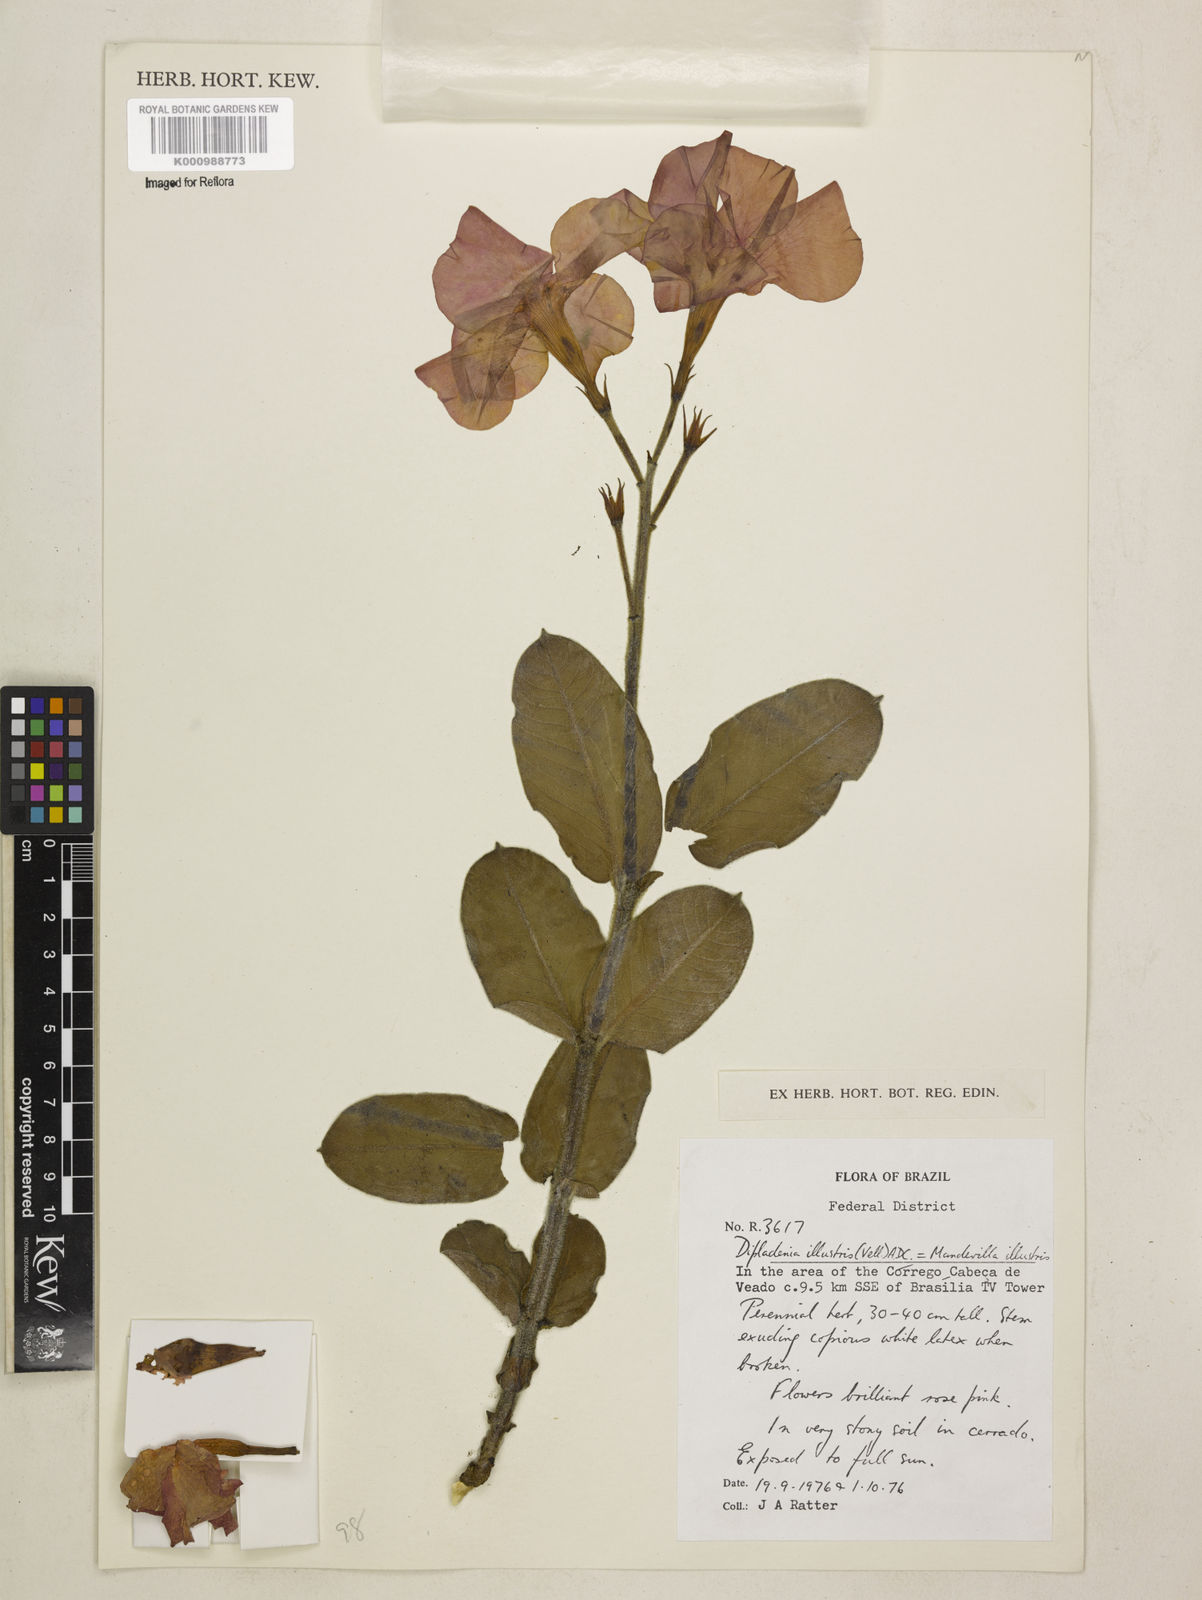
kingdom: Plantae
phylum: Tracheophyta
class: Magnoliopsida
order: Gentianales
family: Apocynaceae
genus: Mandevilla
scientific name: Mandevilla illustris
